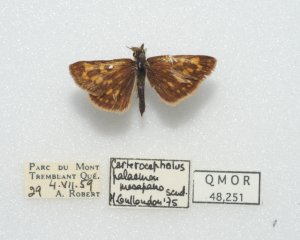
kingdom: Animalia
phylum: Arthropoda
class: Insecta
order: Lepidoptera
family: Hesperiidae
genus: Carterocephalus
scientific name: Carterocephalus palaemon
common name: Chequered Skipper
